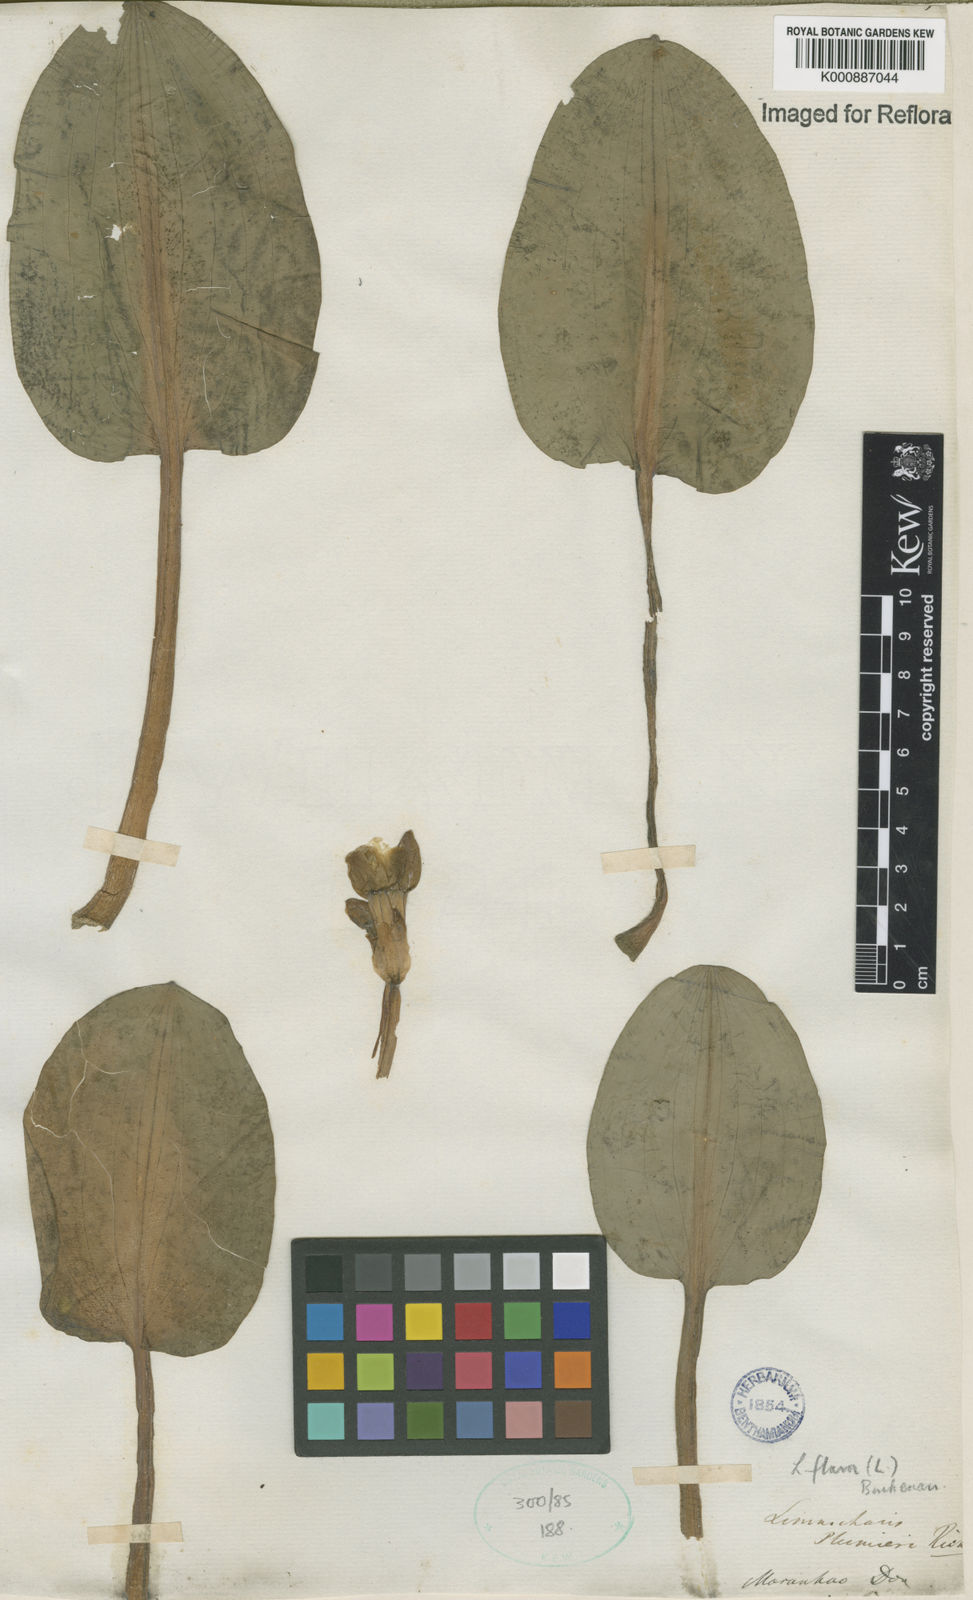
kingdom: Plantae
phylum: Tracheophyta
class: Liliopsida
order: Alismatales
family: Alismataceae
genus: Limnocharis
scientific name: Limnocharis flava
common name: Sawah-flower-rush
